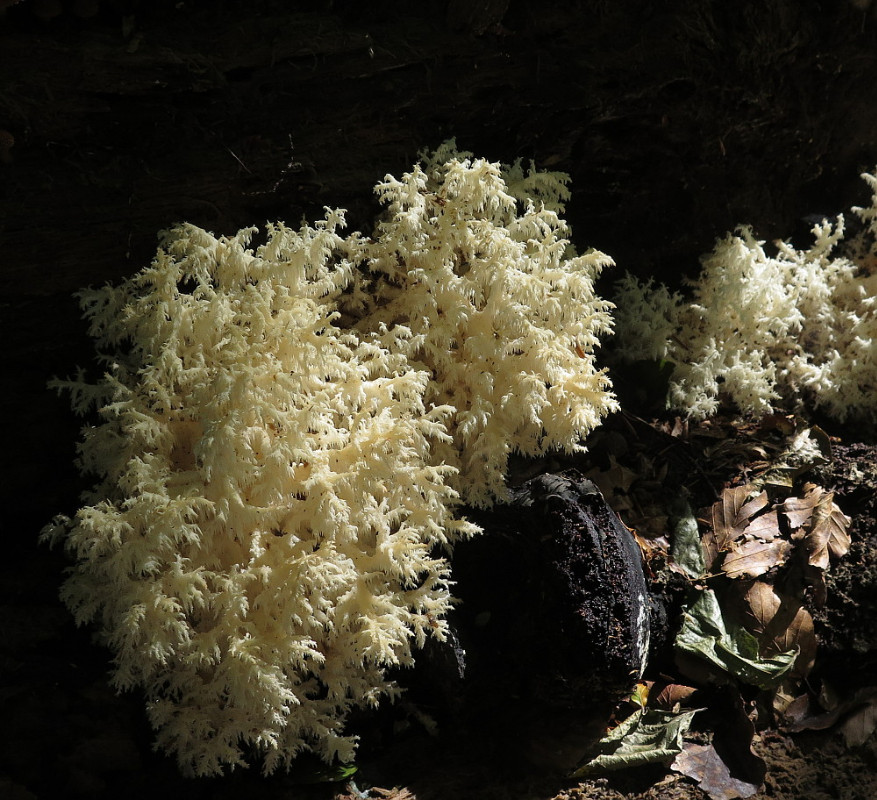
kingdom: Fungi
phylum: Basidiomycota
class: Agaricomycetes
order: Russulales
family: Hericiaceae
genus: Hericium
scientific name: Hericium coralloides
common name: koralpigsvamp
